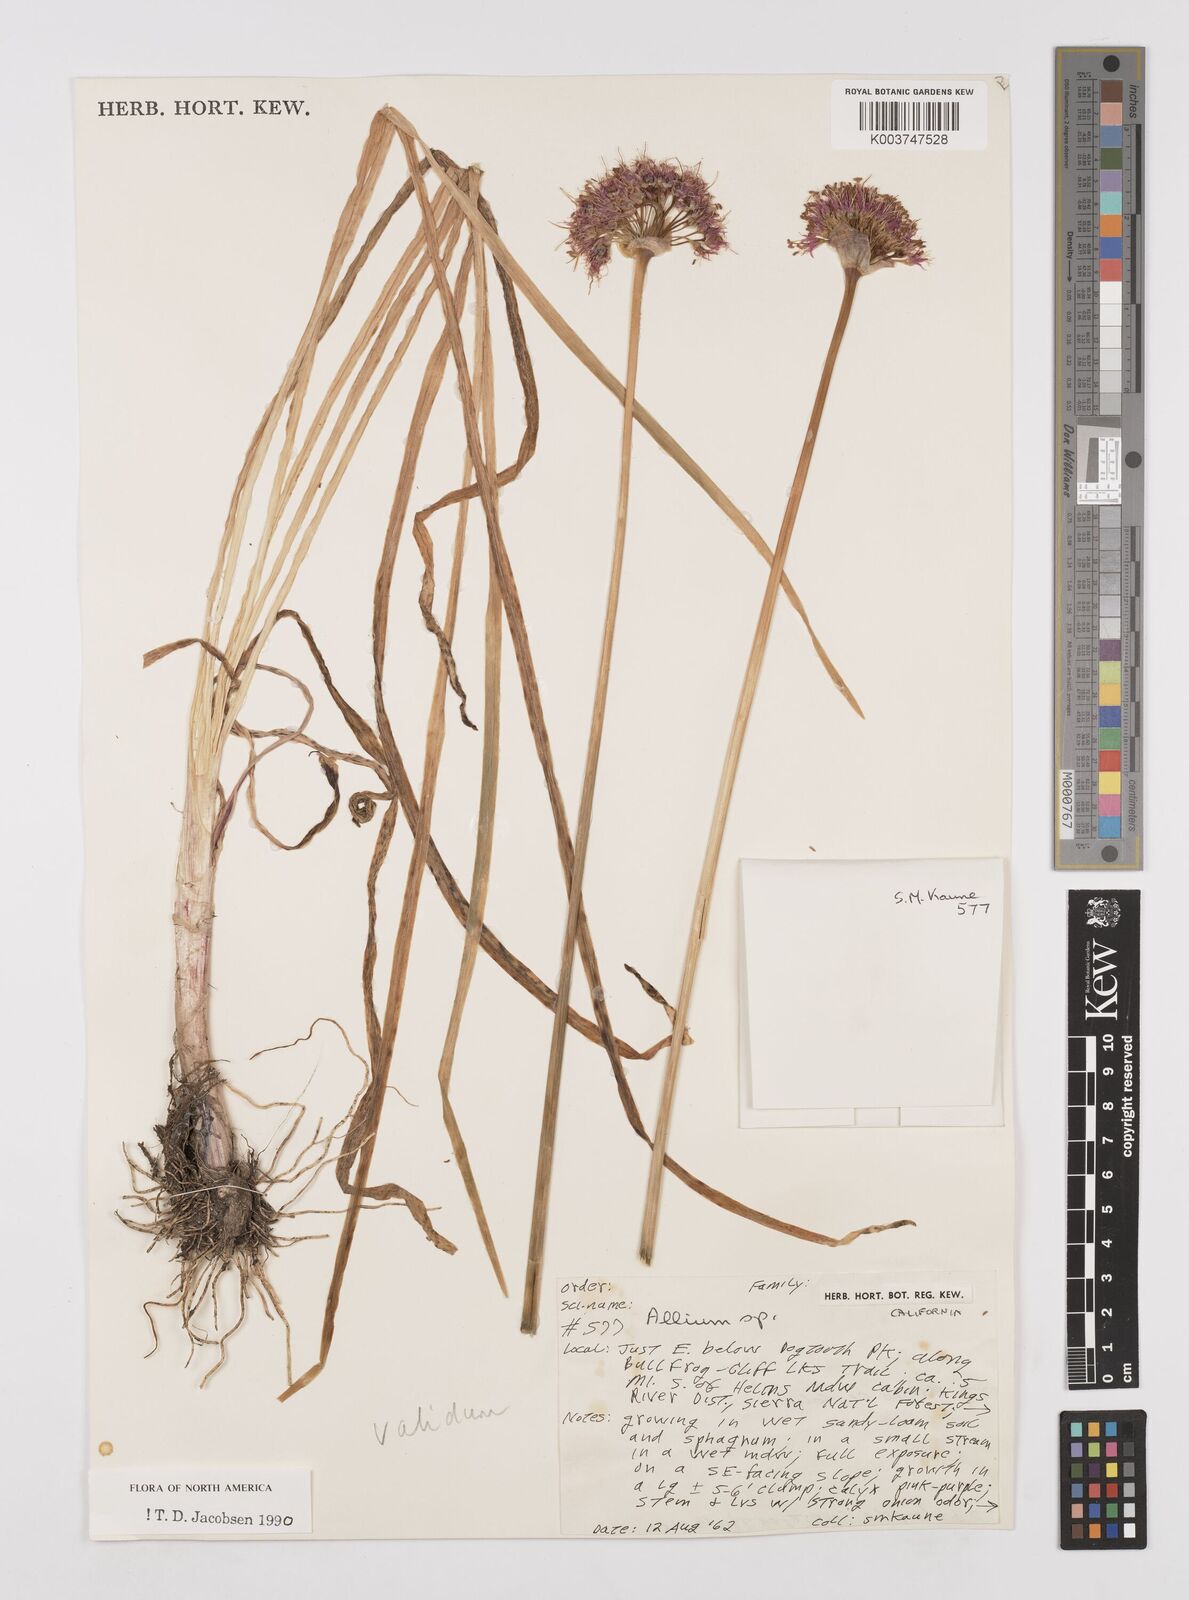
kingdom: Plantae
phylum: Tracheophyta
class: Liliopsida
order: Asparagales
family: Amaryllidaceae
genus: Allium
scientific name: Allium validum
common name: Pacific mountain onion
